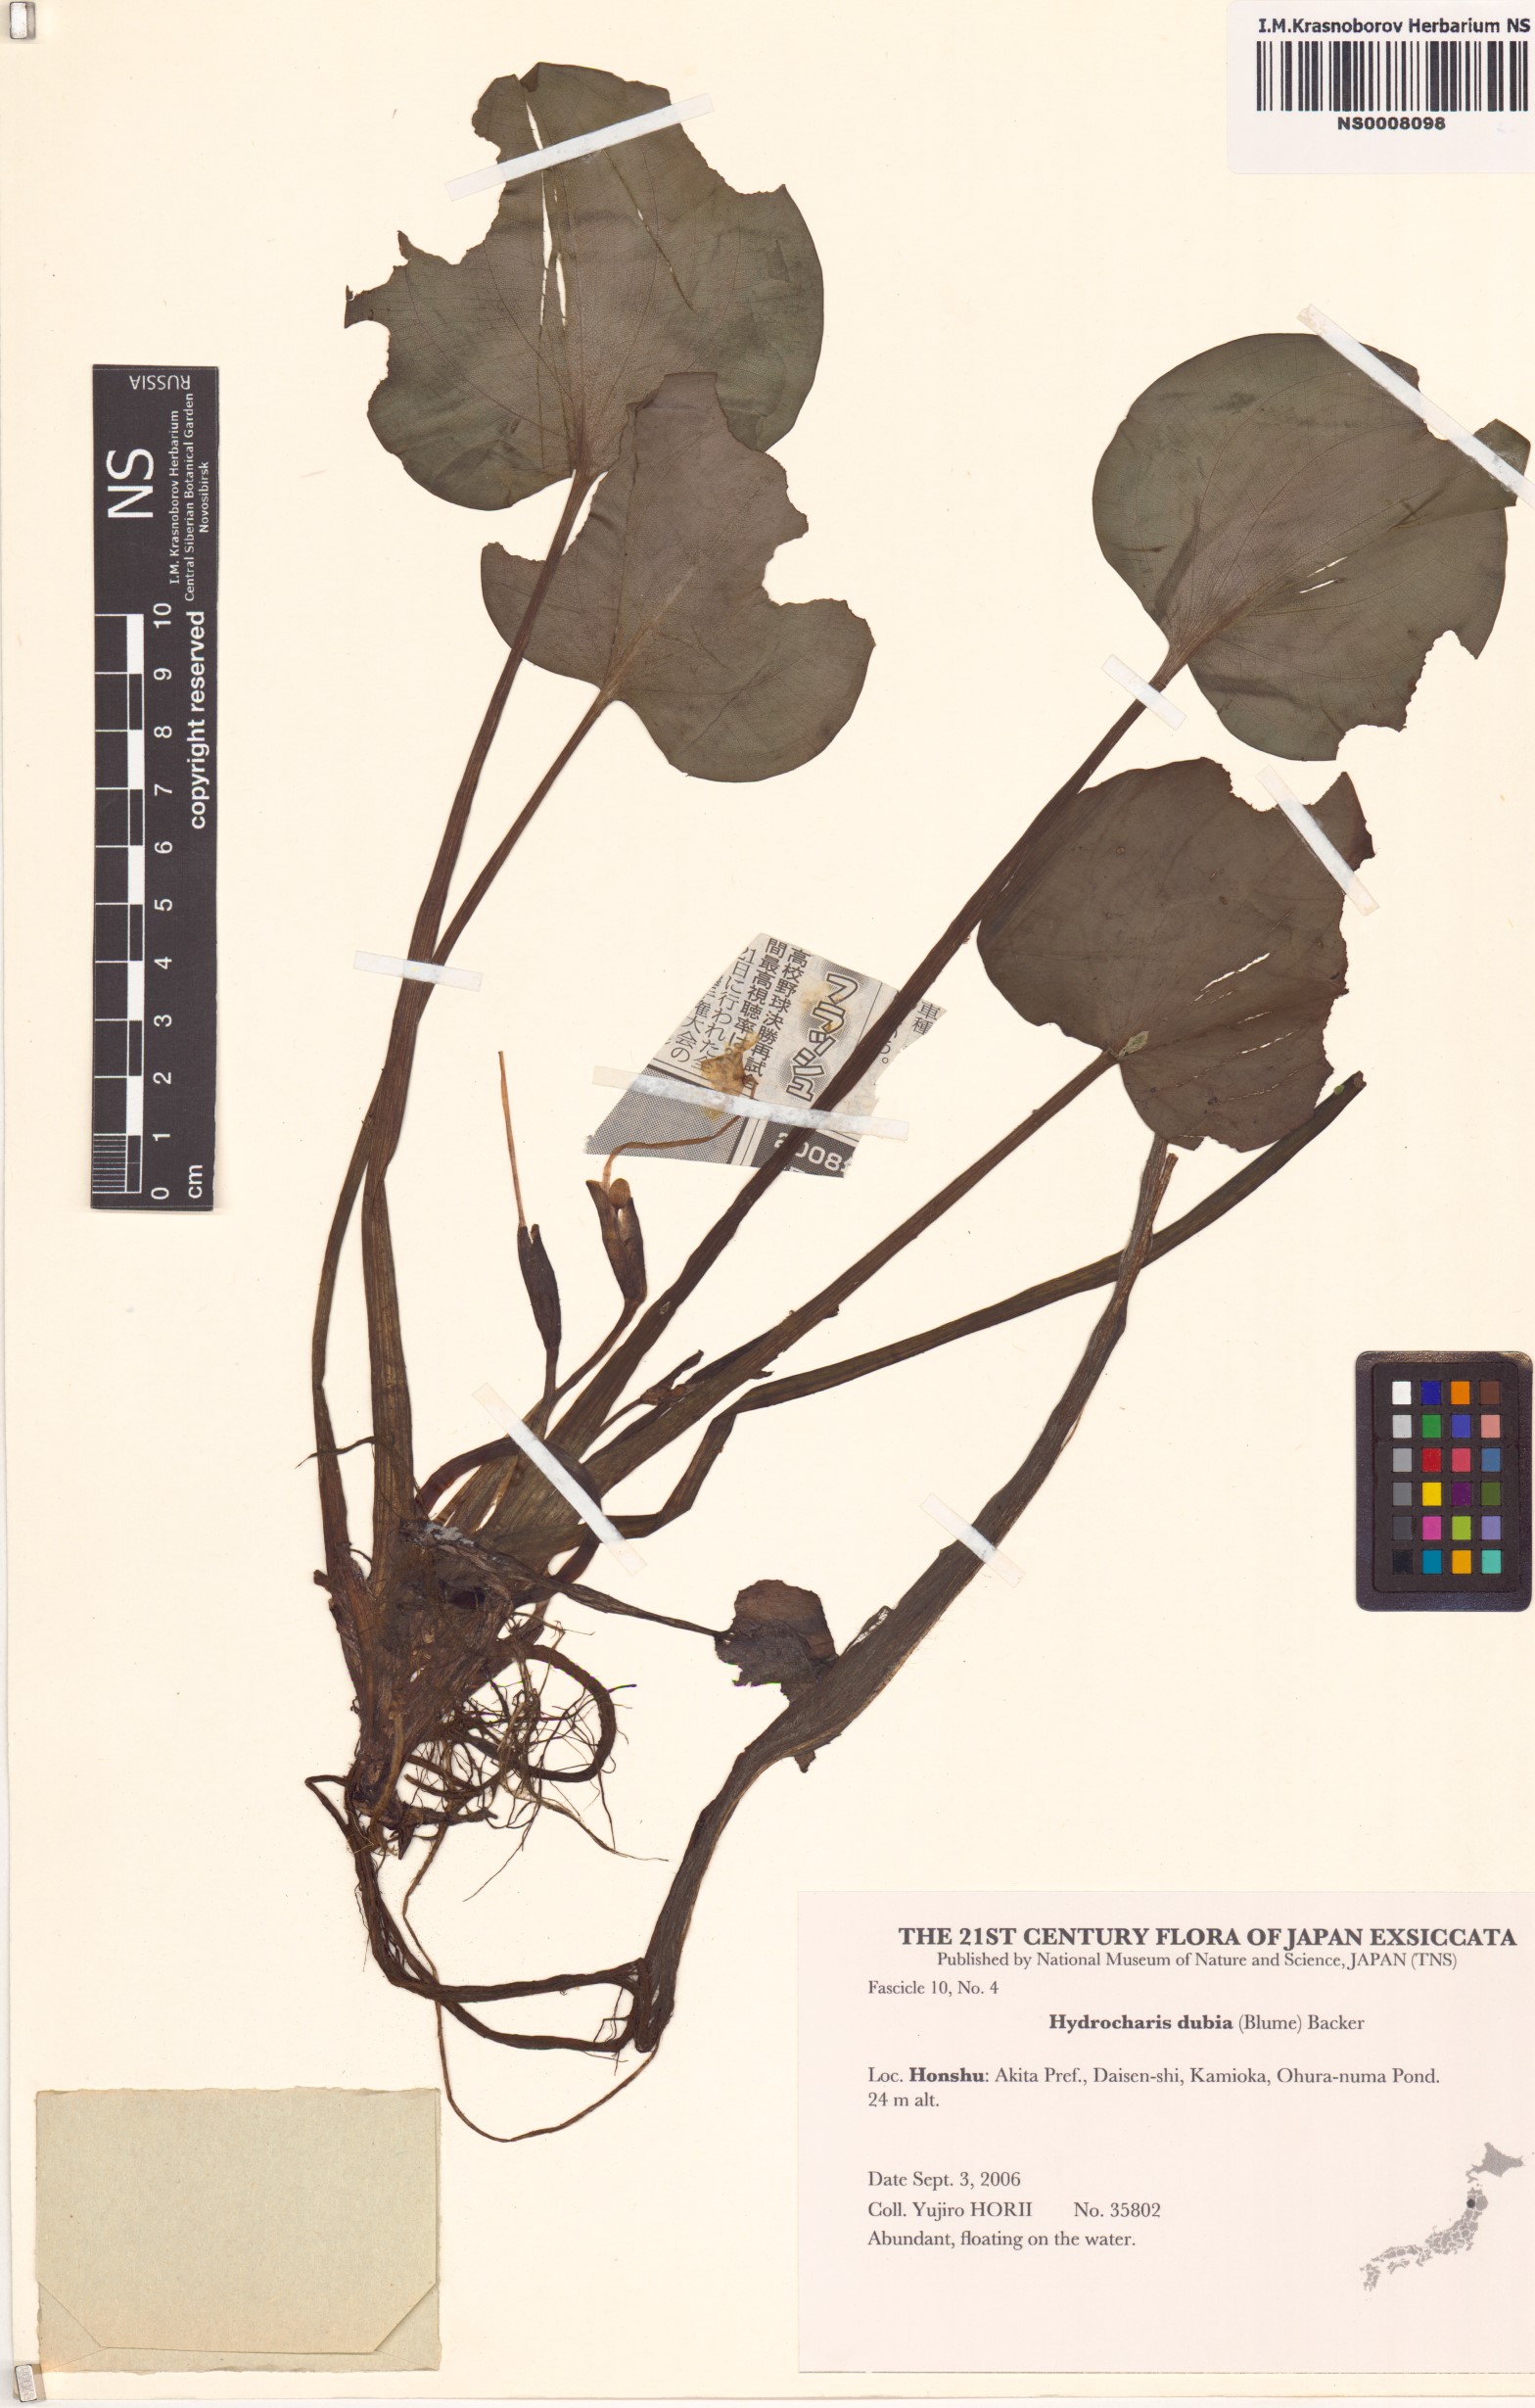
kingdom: Plantae
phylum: Tracheophyta
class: Liliopsida
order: Alismatales
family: Hydrocharitaceae
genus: Hydrocharis
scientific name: Hydrocharis dubia
